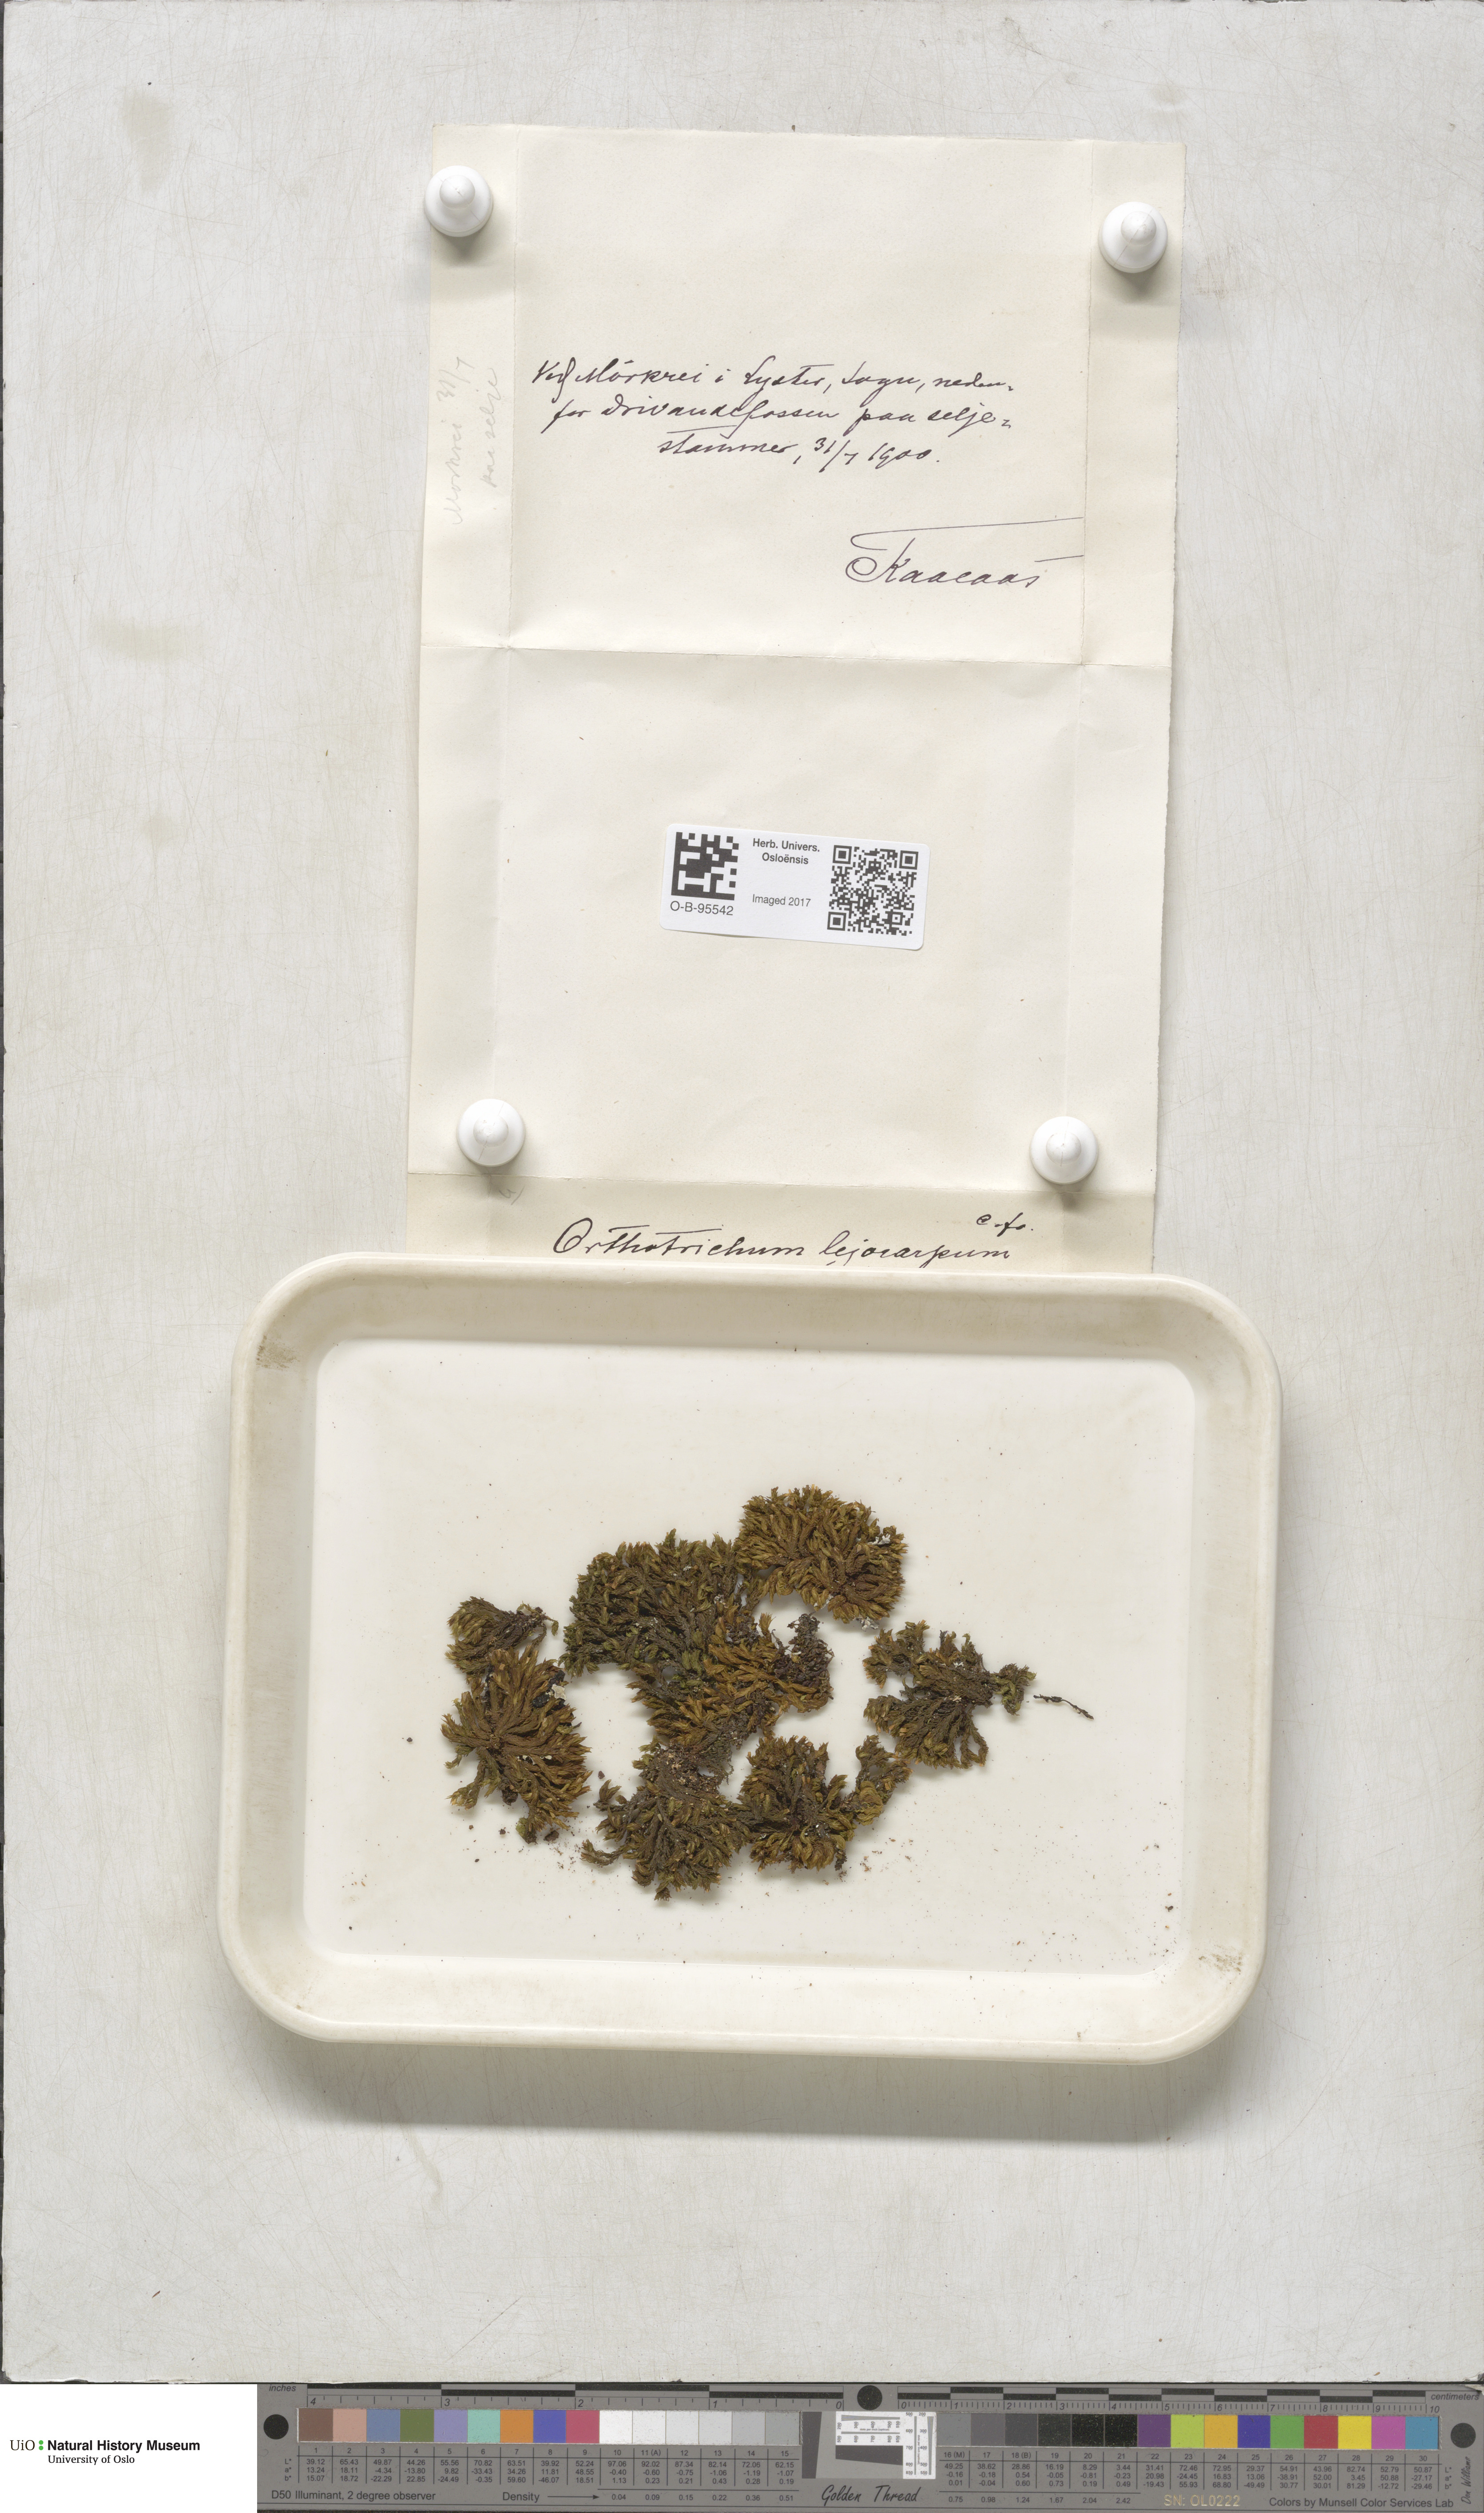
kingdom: Plantae
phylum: Bryophyta
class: Bryopsida
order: Orthotrichales
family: Orthotrichaceae
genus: Lewinskya
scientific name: Lewinskya striata
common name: Shaw's bristle-moss
